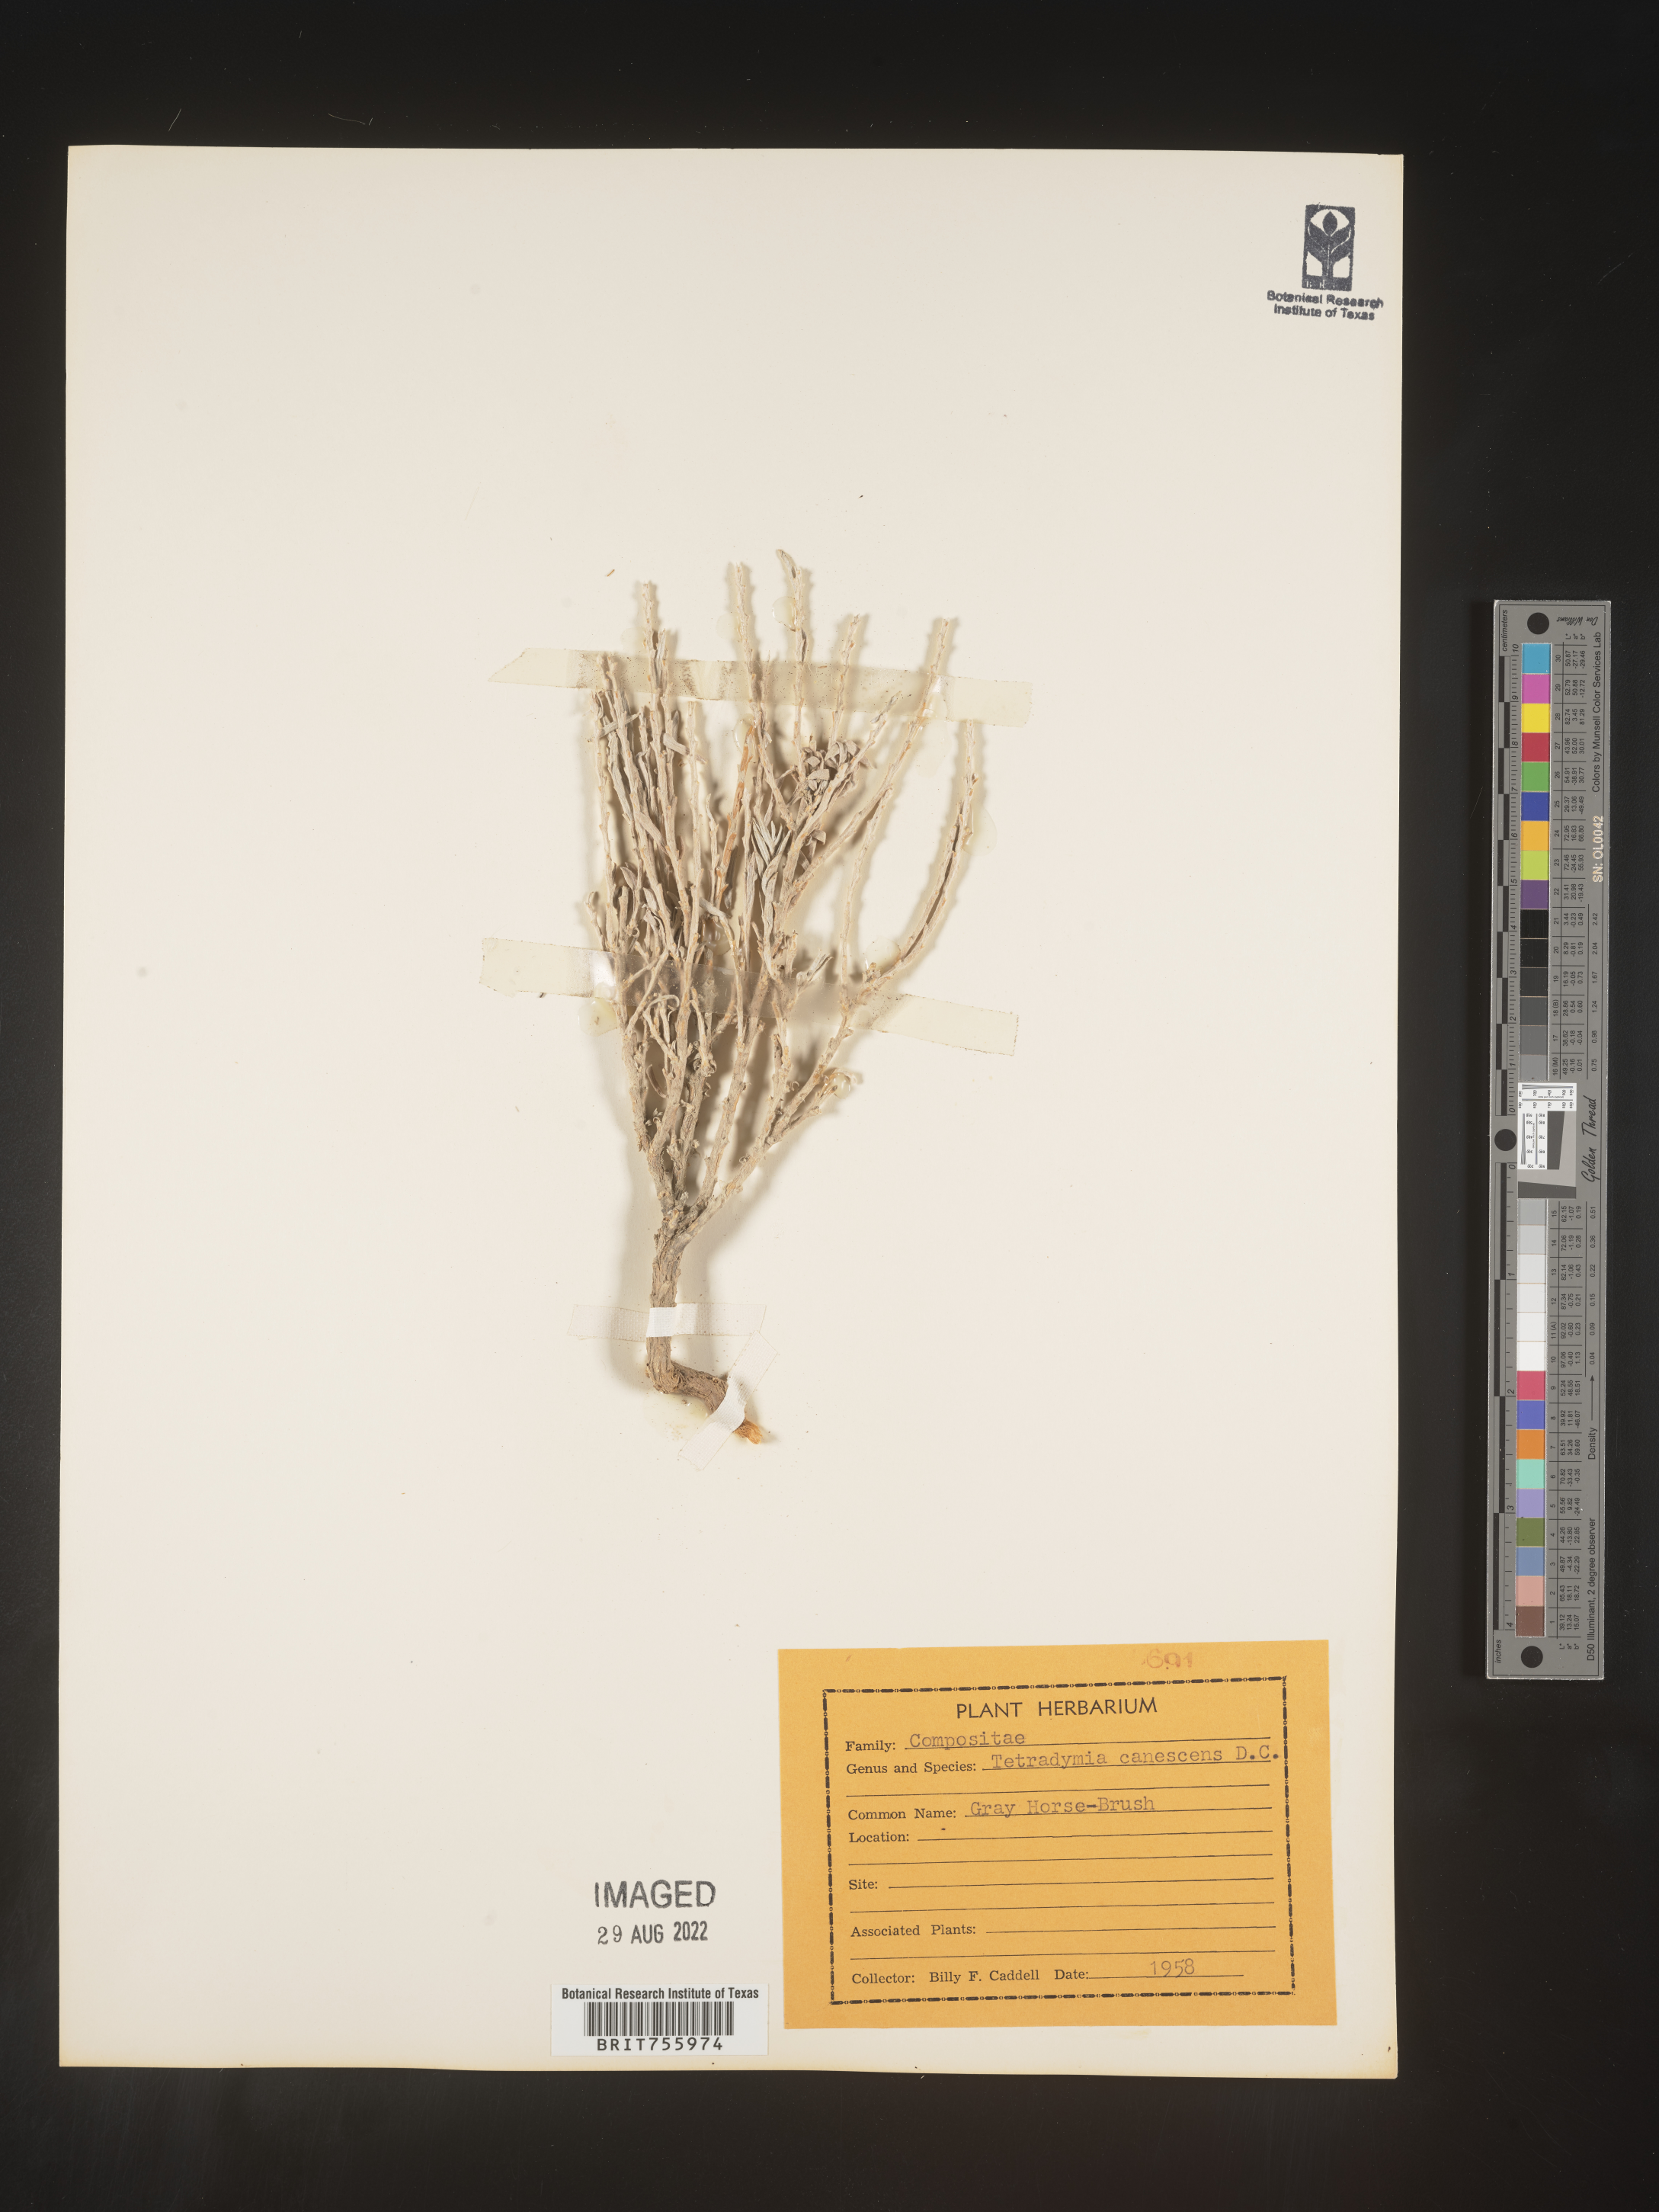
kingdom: Plantae
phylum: Tracheophyta
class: Magnoliopsida
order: Asterales
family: Asteraceae
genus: Tetradymia
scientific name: Tetradymia canescens
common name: Spineless horsebrush
